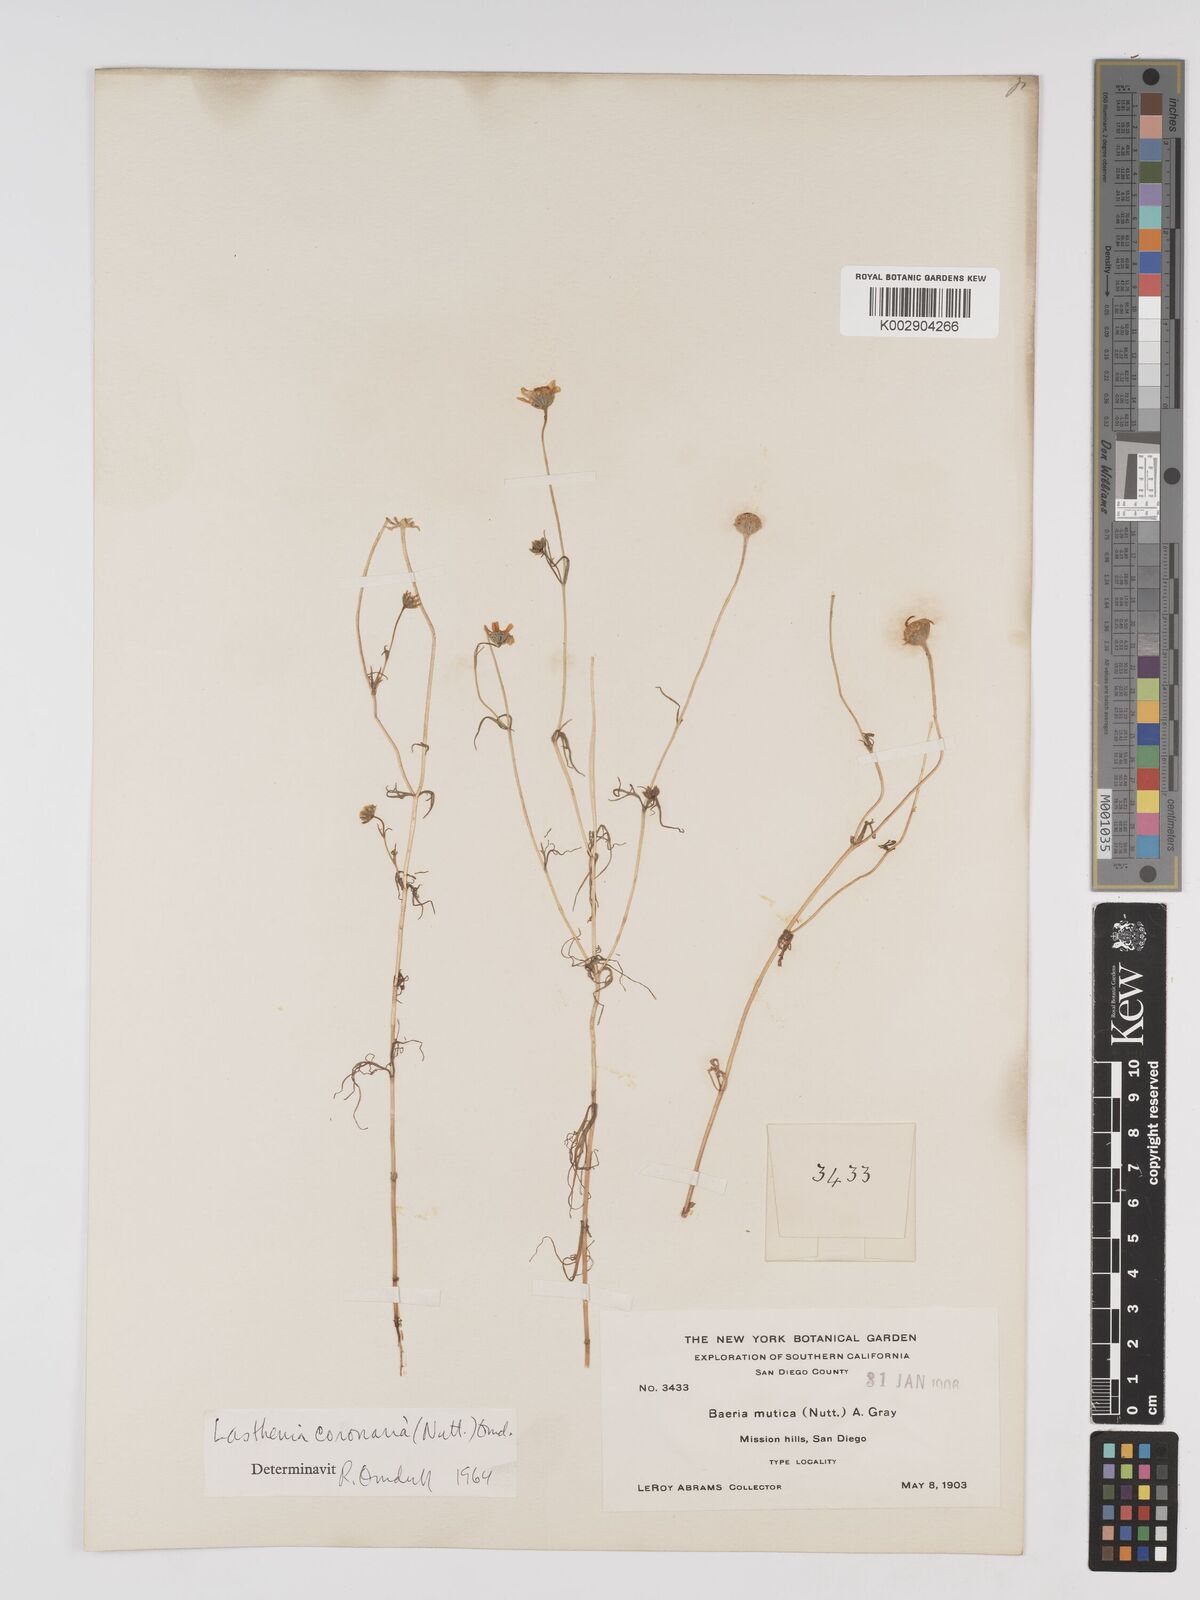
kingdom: Plantae
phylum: Tracheophyta
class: Magnoliopsida
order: Asterales
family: Asteraceae
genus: Lasthenia
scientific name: Lasthenia coronaria
